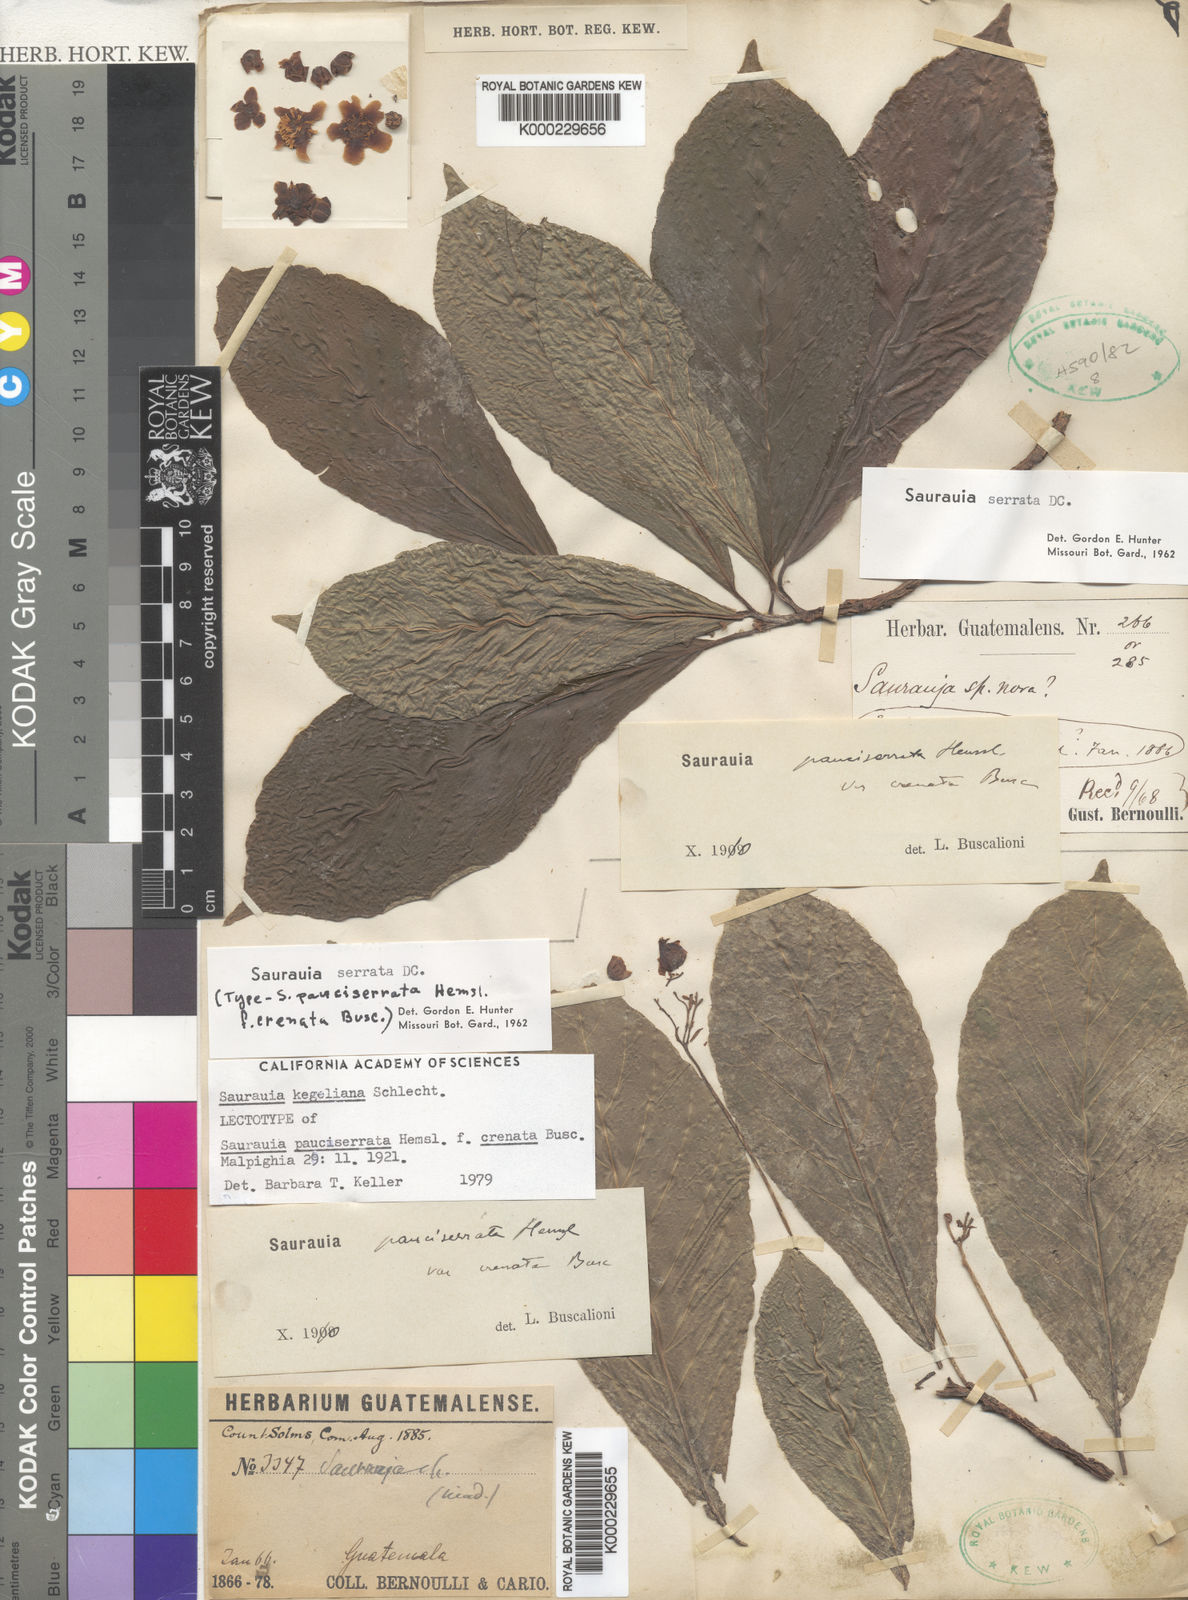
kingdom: Plantae
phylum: Tracheophyta
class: Magnoliopsida
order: Ericales
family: Actinidiaceae
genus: Saurauia
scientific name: Saurauia kegeliana
